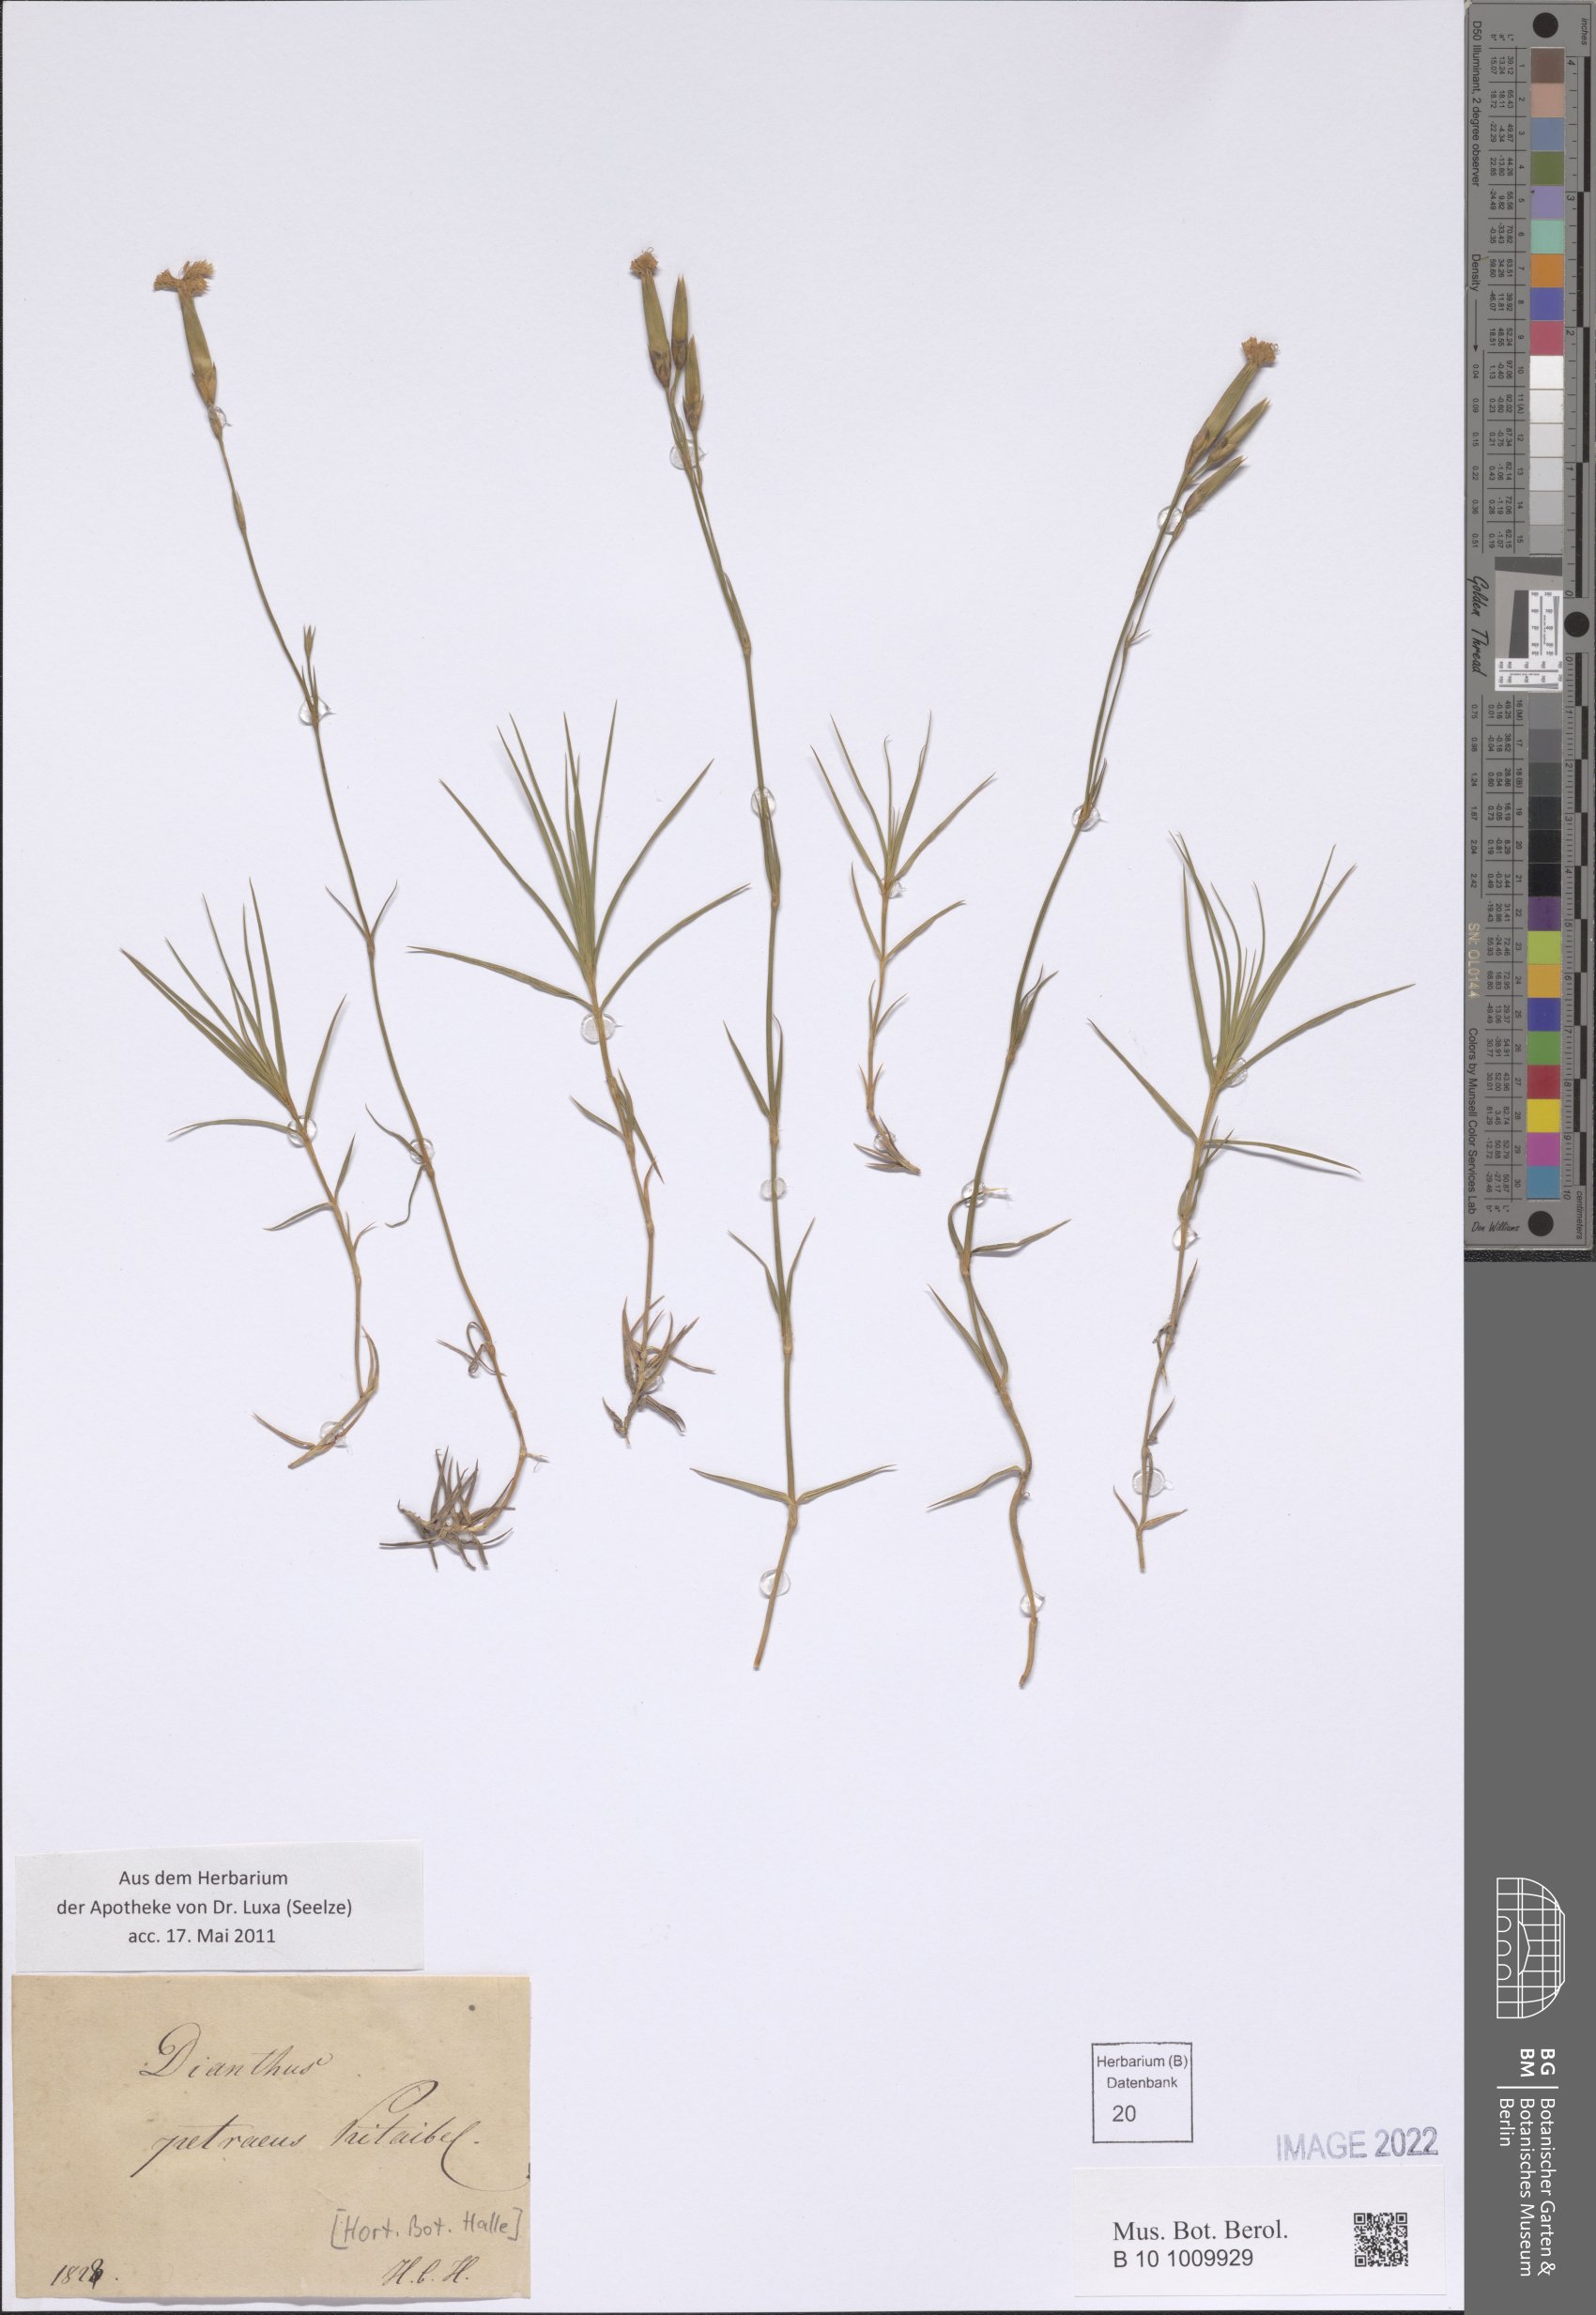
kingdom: Plantae
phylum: Tracheophyta
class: Magnoliopsida
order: Caryophyllales
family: Caryophyllaceae
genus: Dianthus
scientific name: Dianthus petraeus
